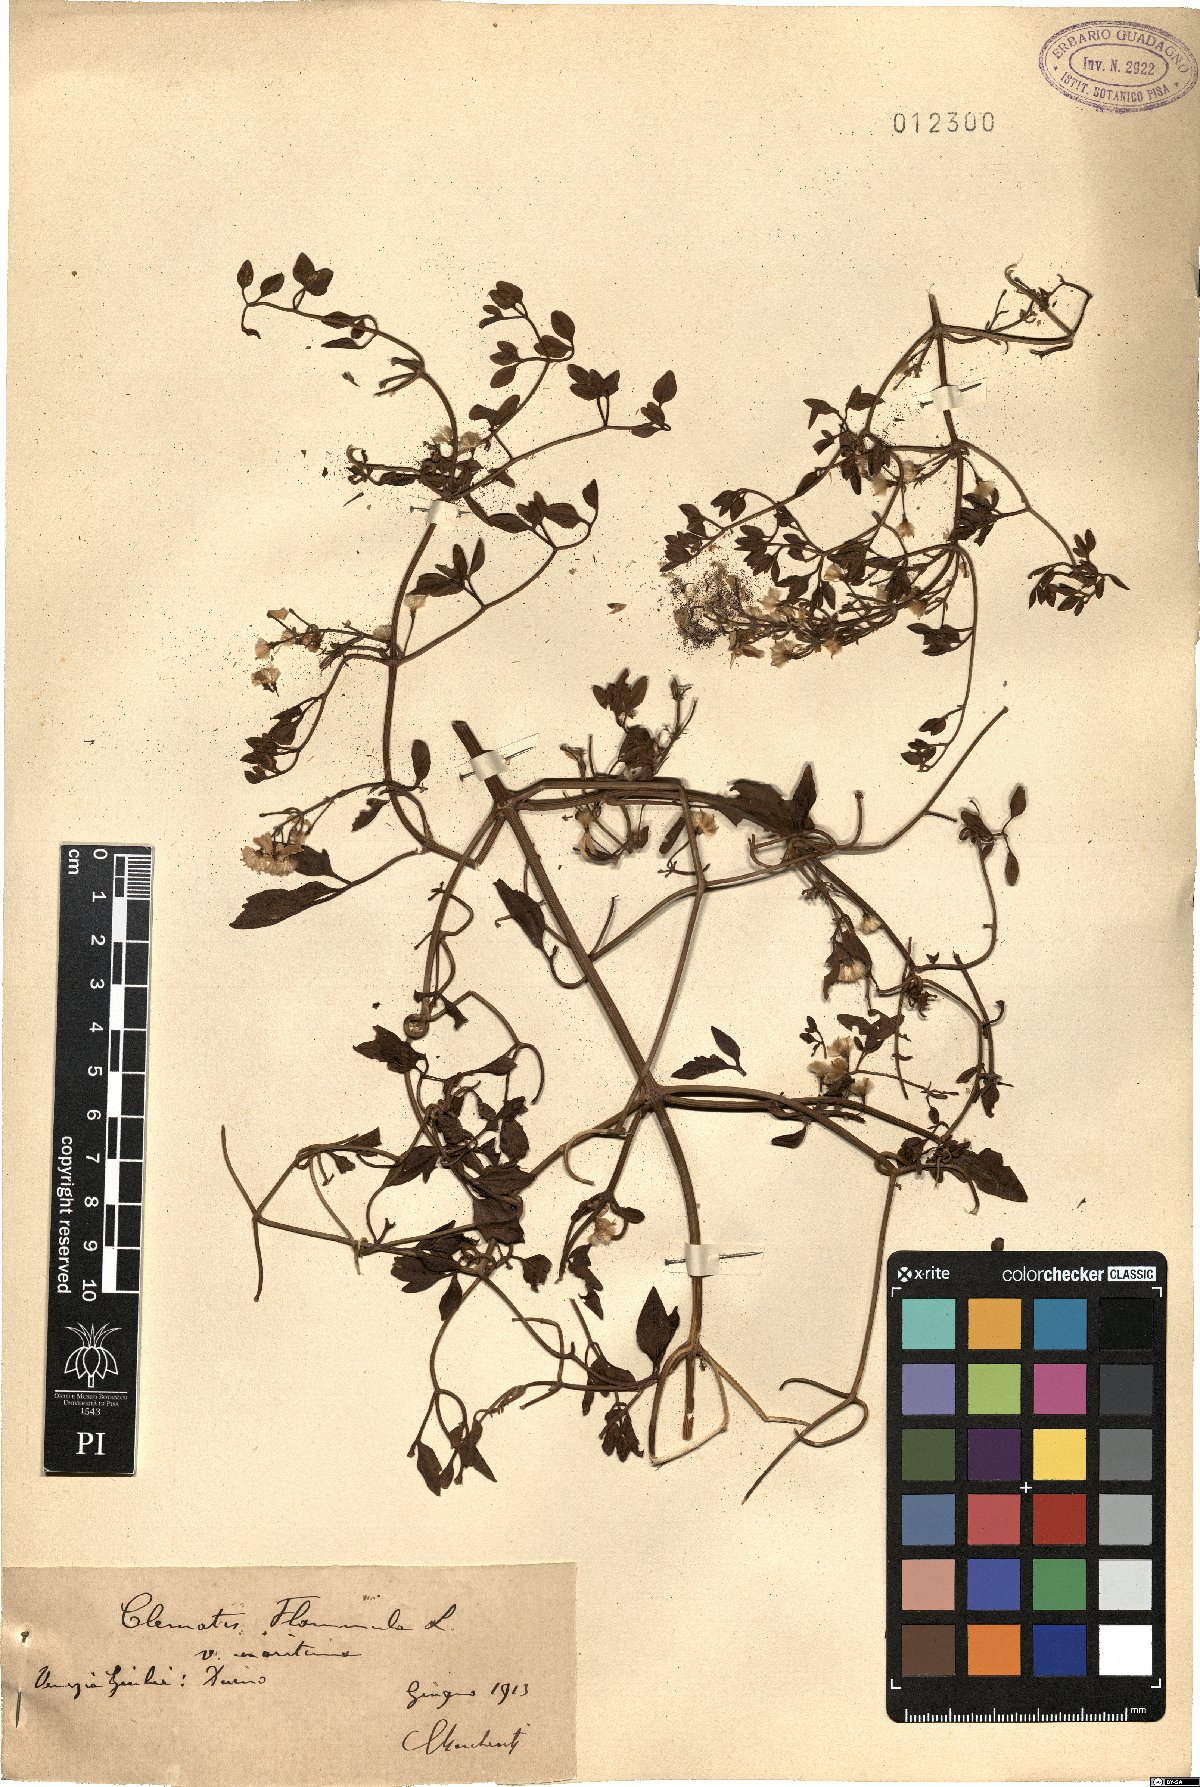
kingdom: Plantae
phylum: Tracheophyta
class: Magnoliopsida
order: Ranunculales
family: Ranunculaceae
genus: Clematis
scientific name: Clematis flammula
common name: Virgin's-bower
